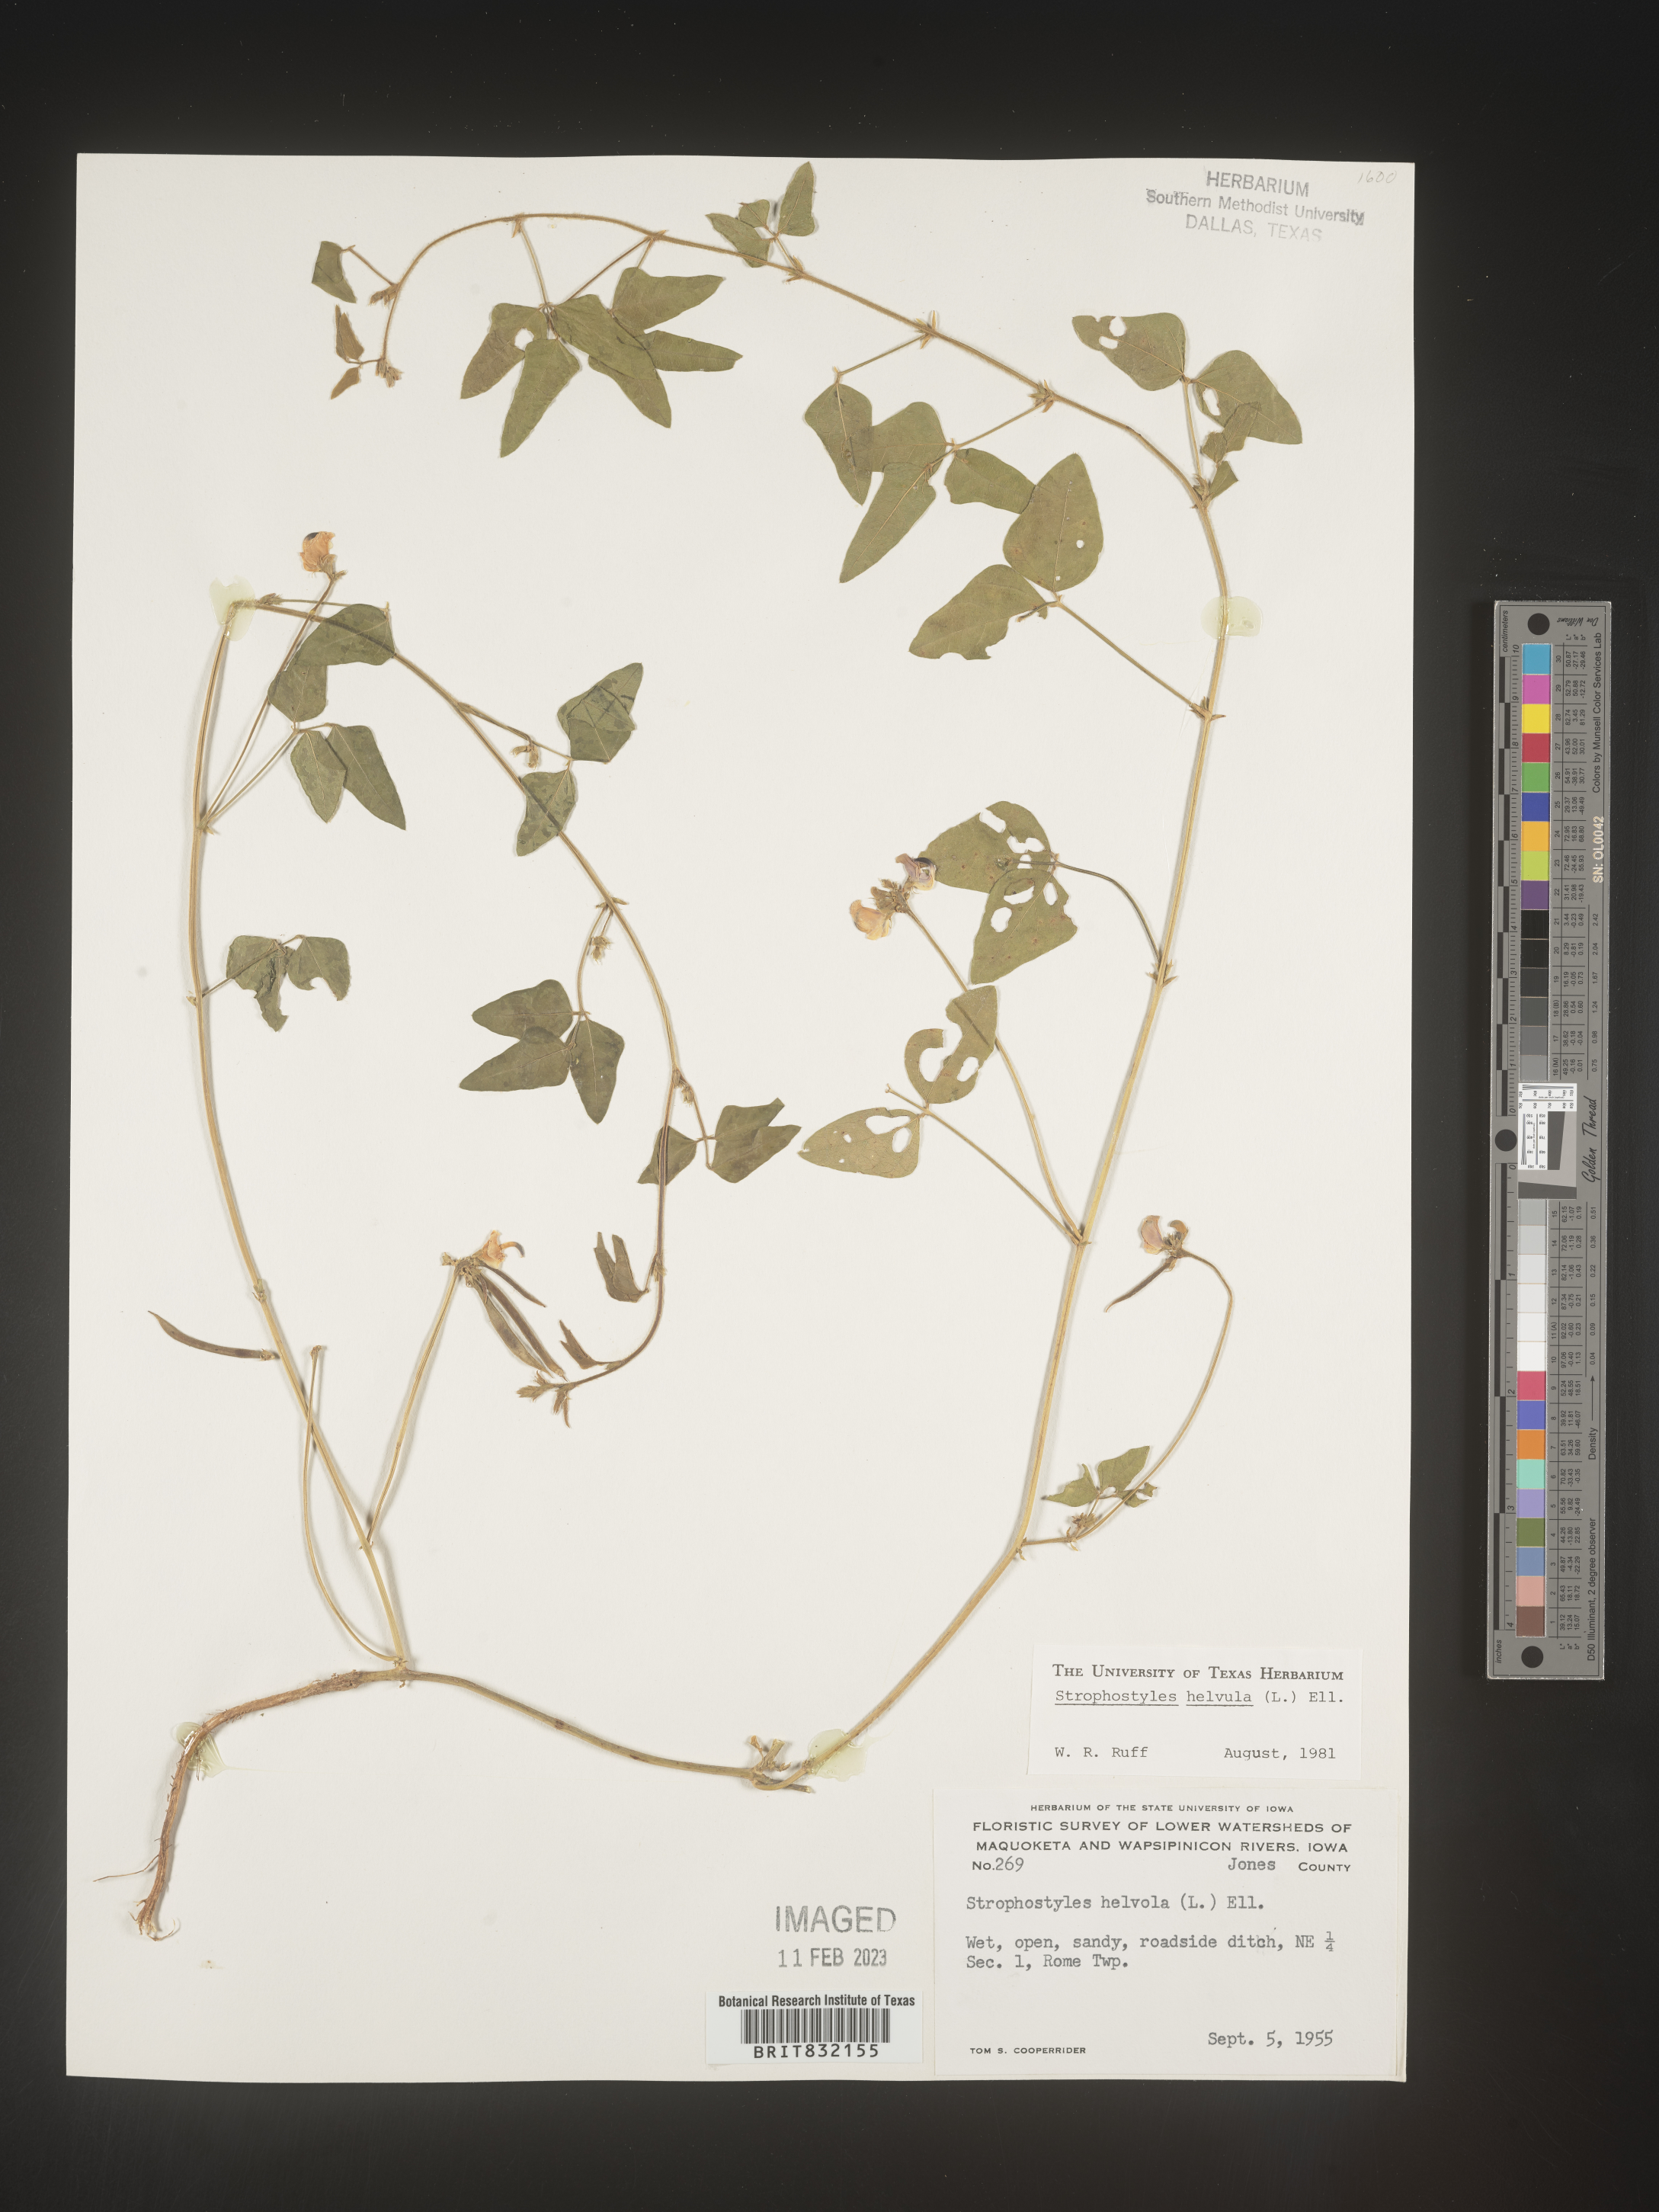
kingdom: Plantae
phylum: Tracheophyta
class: Magnoliopsida
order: Fabales
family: Fabaceae
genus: Strophostyles
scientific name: Strophostyles helvola
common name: Trailing wild bean
